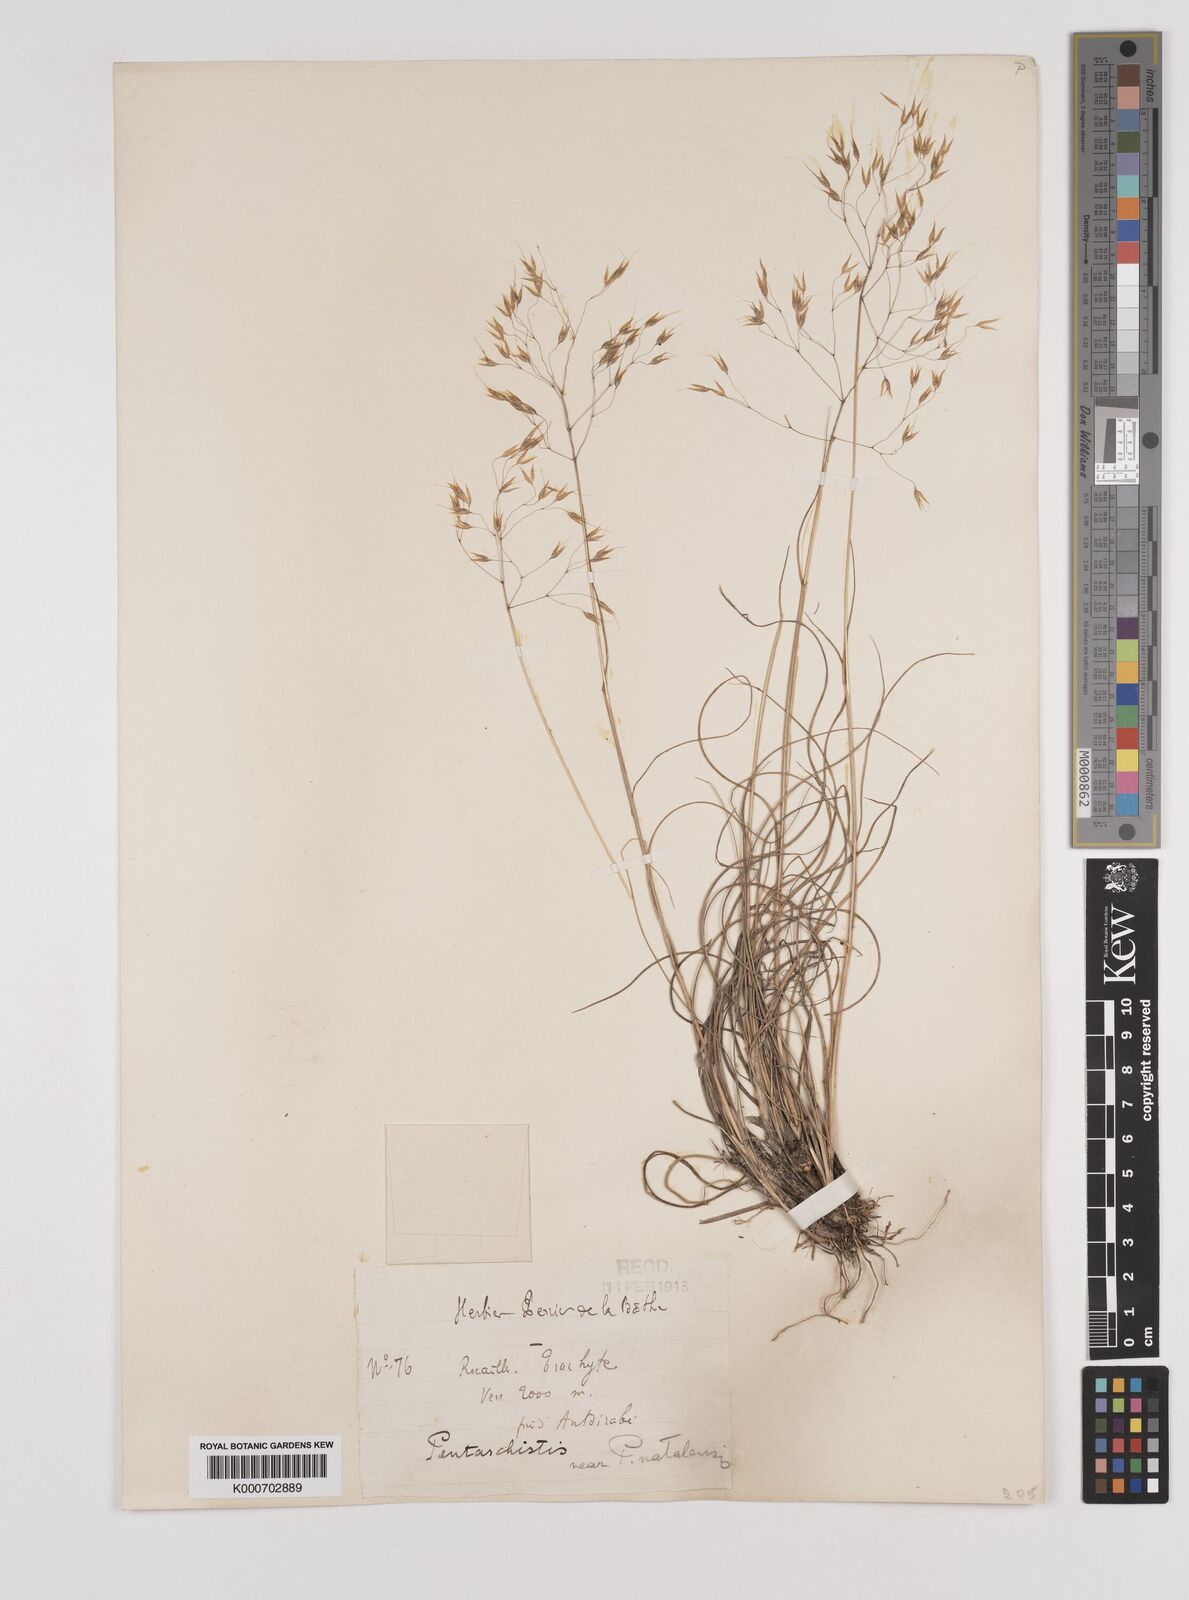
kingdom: Plantae
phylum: Tracheophyta
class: Liliopsida
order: Poales
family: Poaceae
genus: Pentameris
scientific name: Pentameris natalensis
